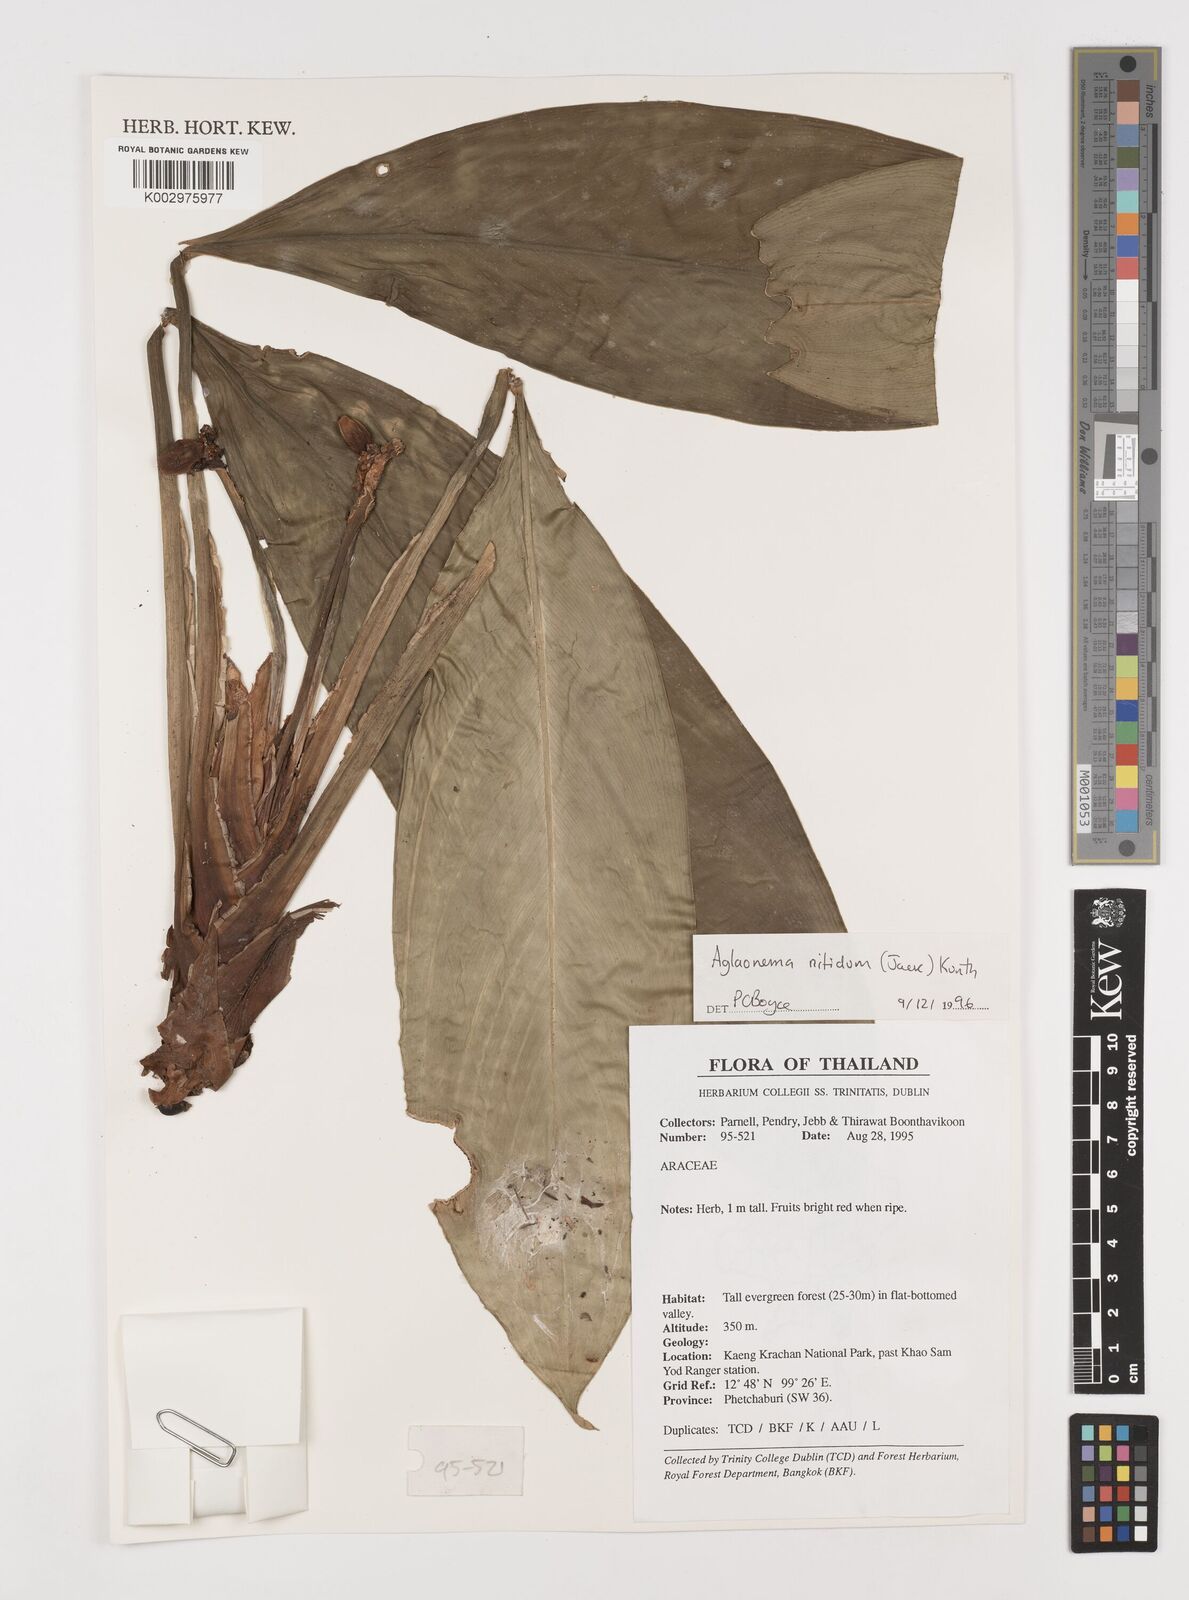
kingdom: Plantae
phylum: Tracheophyta
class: Liliopsida
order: Alismatales
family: Araceae
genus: Aglaonema
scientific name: Aglaonema nitidum
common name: Aglaonema aroid
